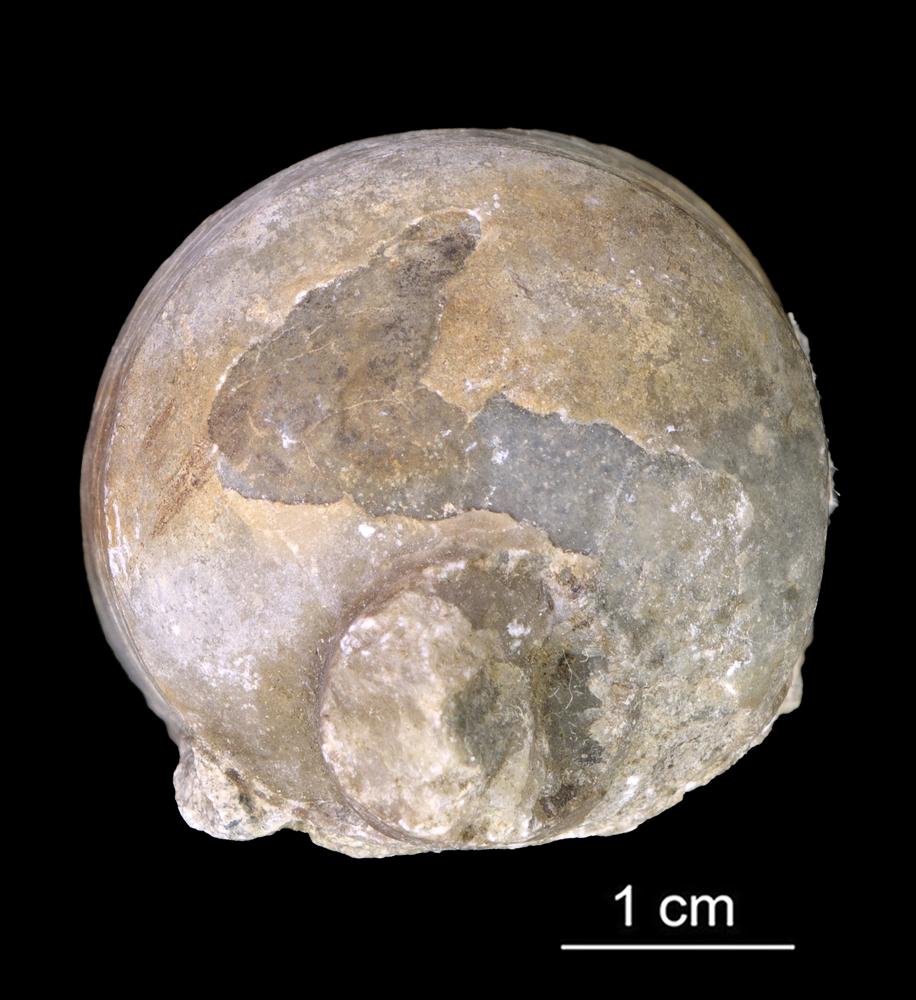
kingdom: Animalia
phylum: Mollusca
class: Cephalopoda
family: Endoceratidae
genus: Endoceras
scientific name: Endoceras
